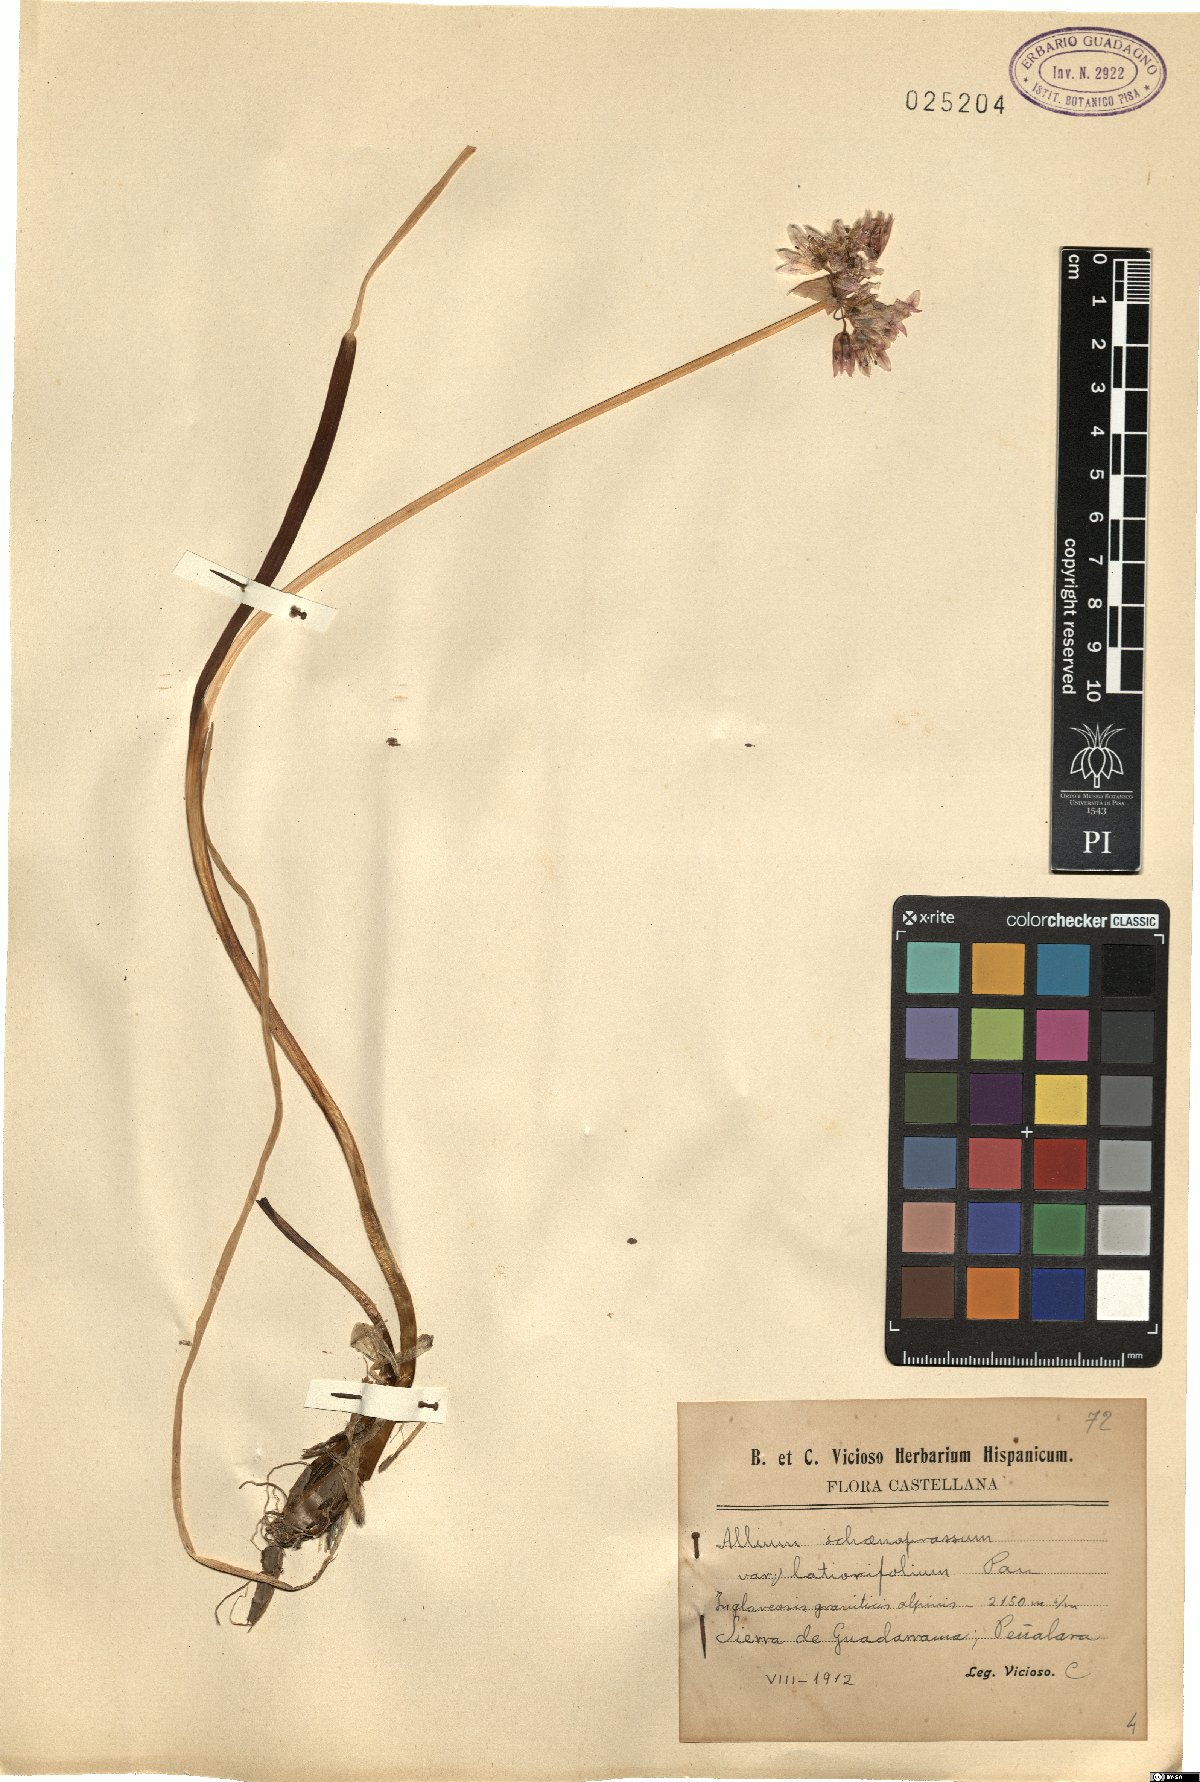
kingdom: Plantae
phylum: Tracheophyta
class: Liliopsida
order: Asparagales
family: Amaryllidaceae
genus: Allium
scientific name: Allium schoenoprasum
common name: Chives
